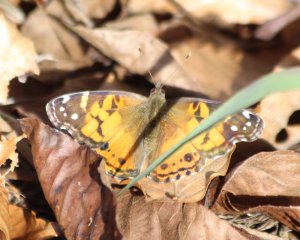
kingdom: Animalia
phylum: Arthropoda
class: Insecta
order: Lepidoptera
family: Nymphalidae
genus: Vanessa
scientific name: Vanessa virginiensis
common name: American Lady
